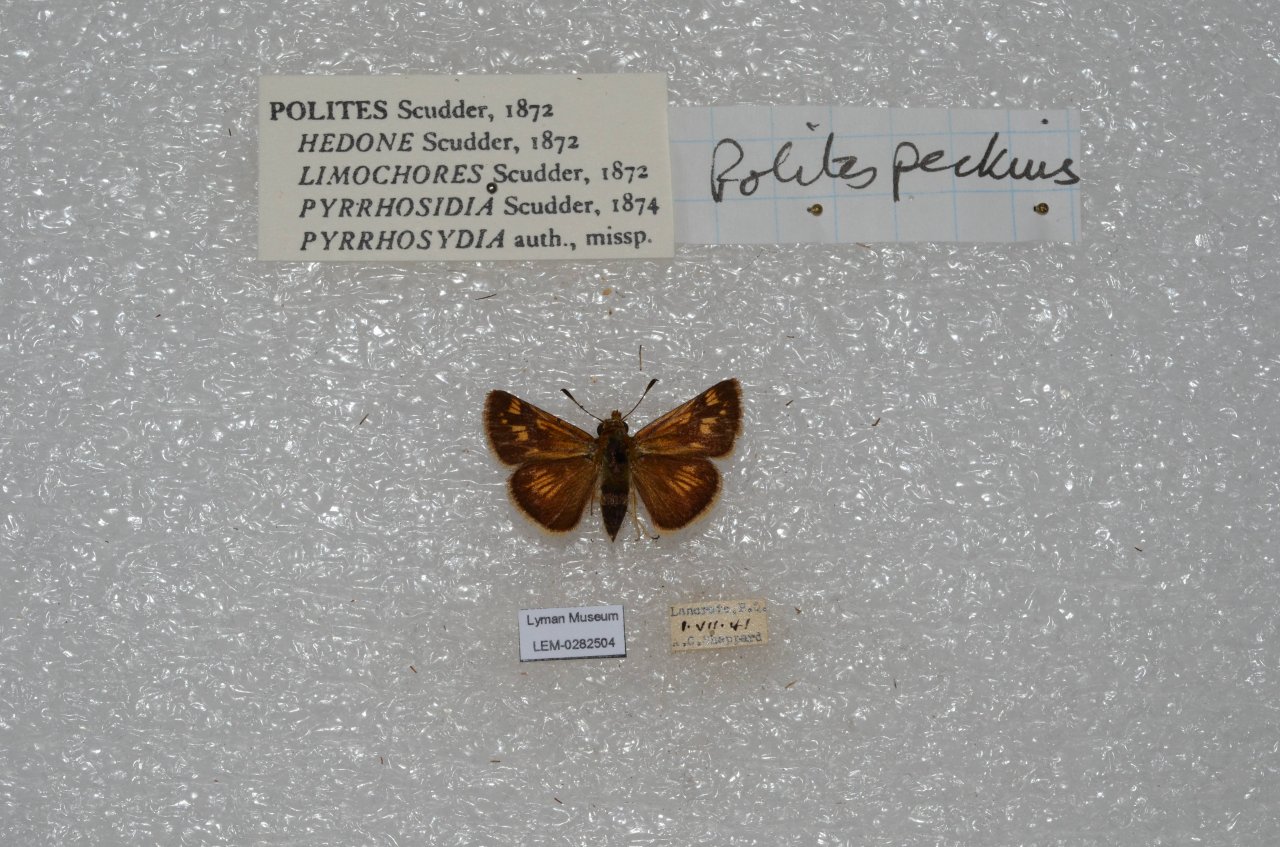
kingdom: Animalia
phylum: Arthropoda
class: Insecta
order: Lepidoptera
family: Hesperiidae
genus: Polites
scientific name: Polites coras
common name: Peck's Skipper
